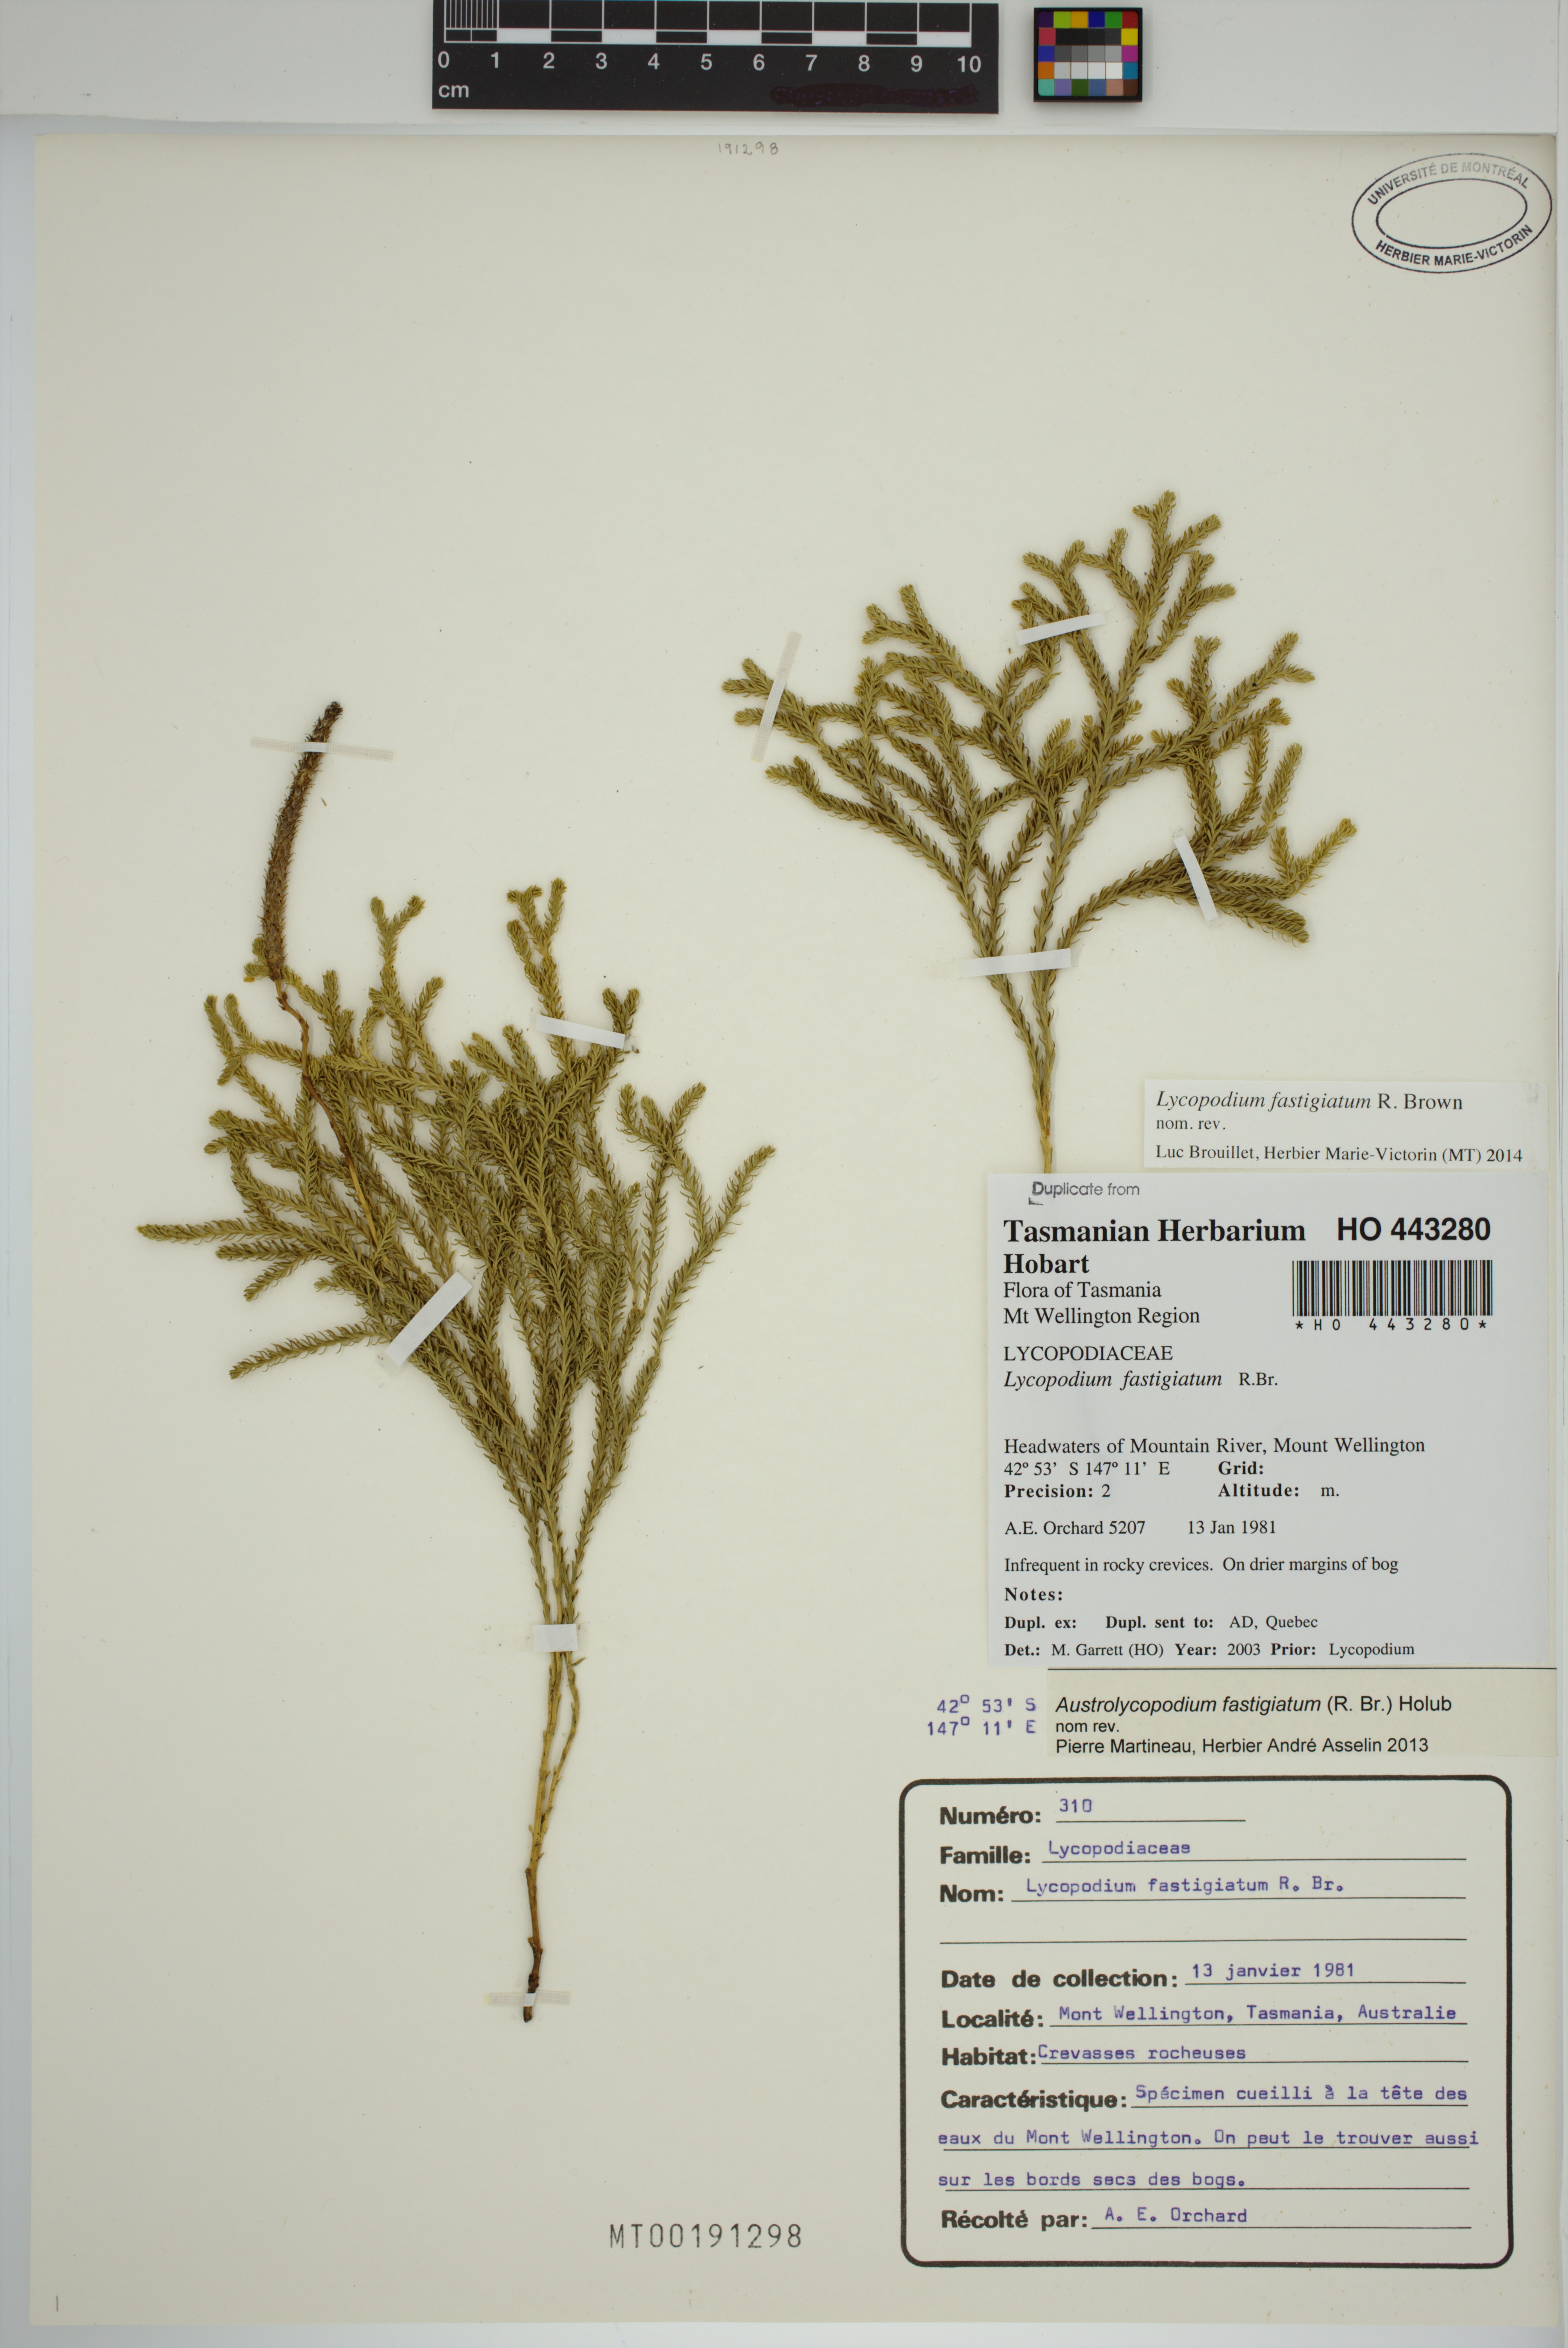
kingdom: Plantae
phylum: Tracheophyta
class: Lycopodiopsida
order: Lycopodiales
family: Lycopodiaceae
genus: Austrolycopodium
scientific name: Austrolycopodium fastigiatum
